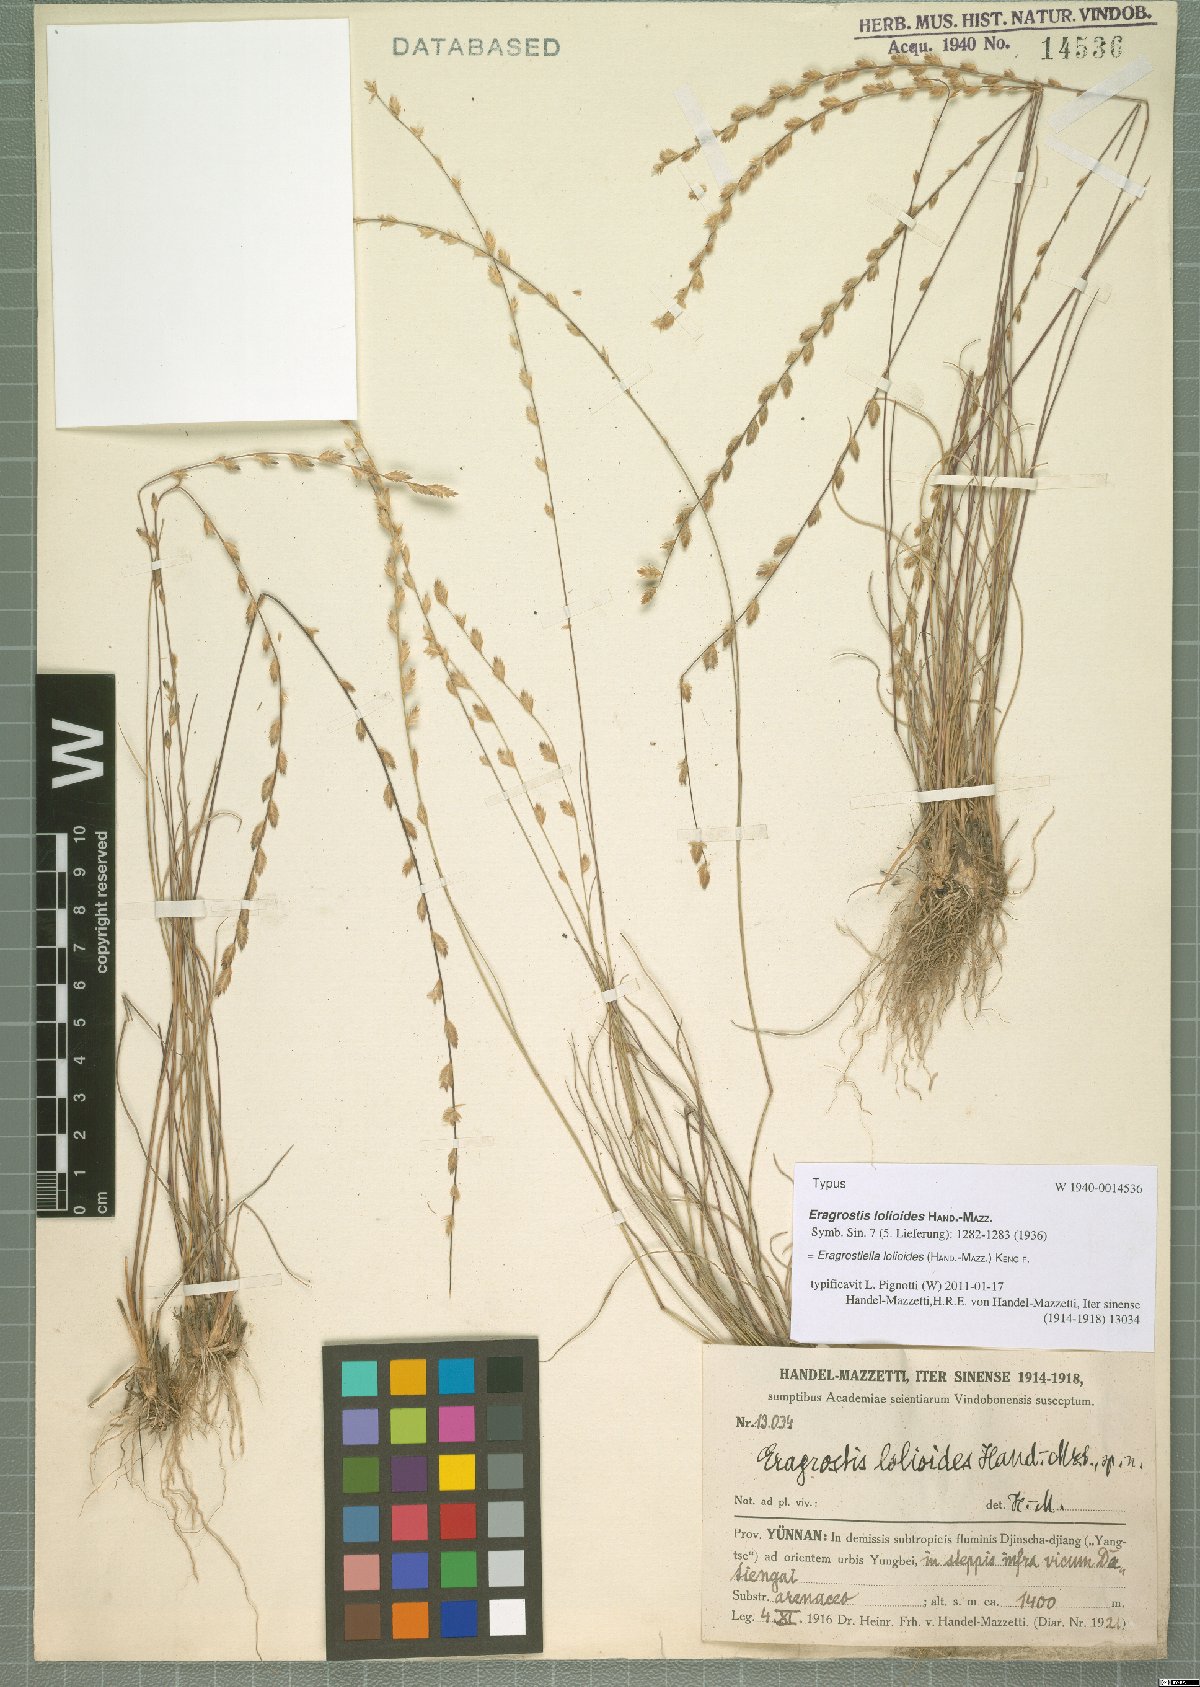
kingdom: Plantae
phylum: Tracheophyta
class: Liliopsida
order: Poales
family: Poaceae
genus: Eragrostiella
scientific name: Eragrostiella lolioides
